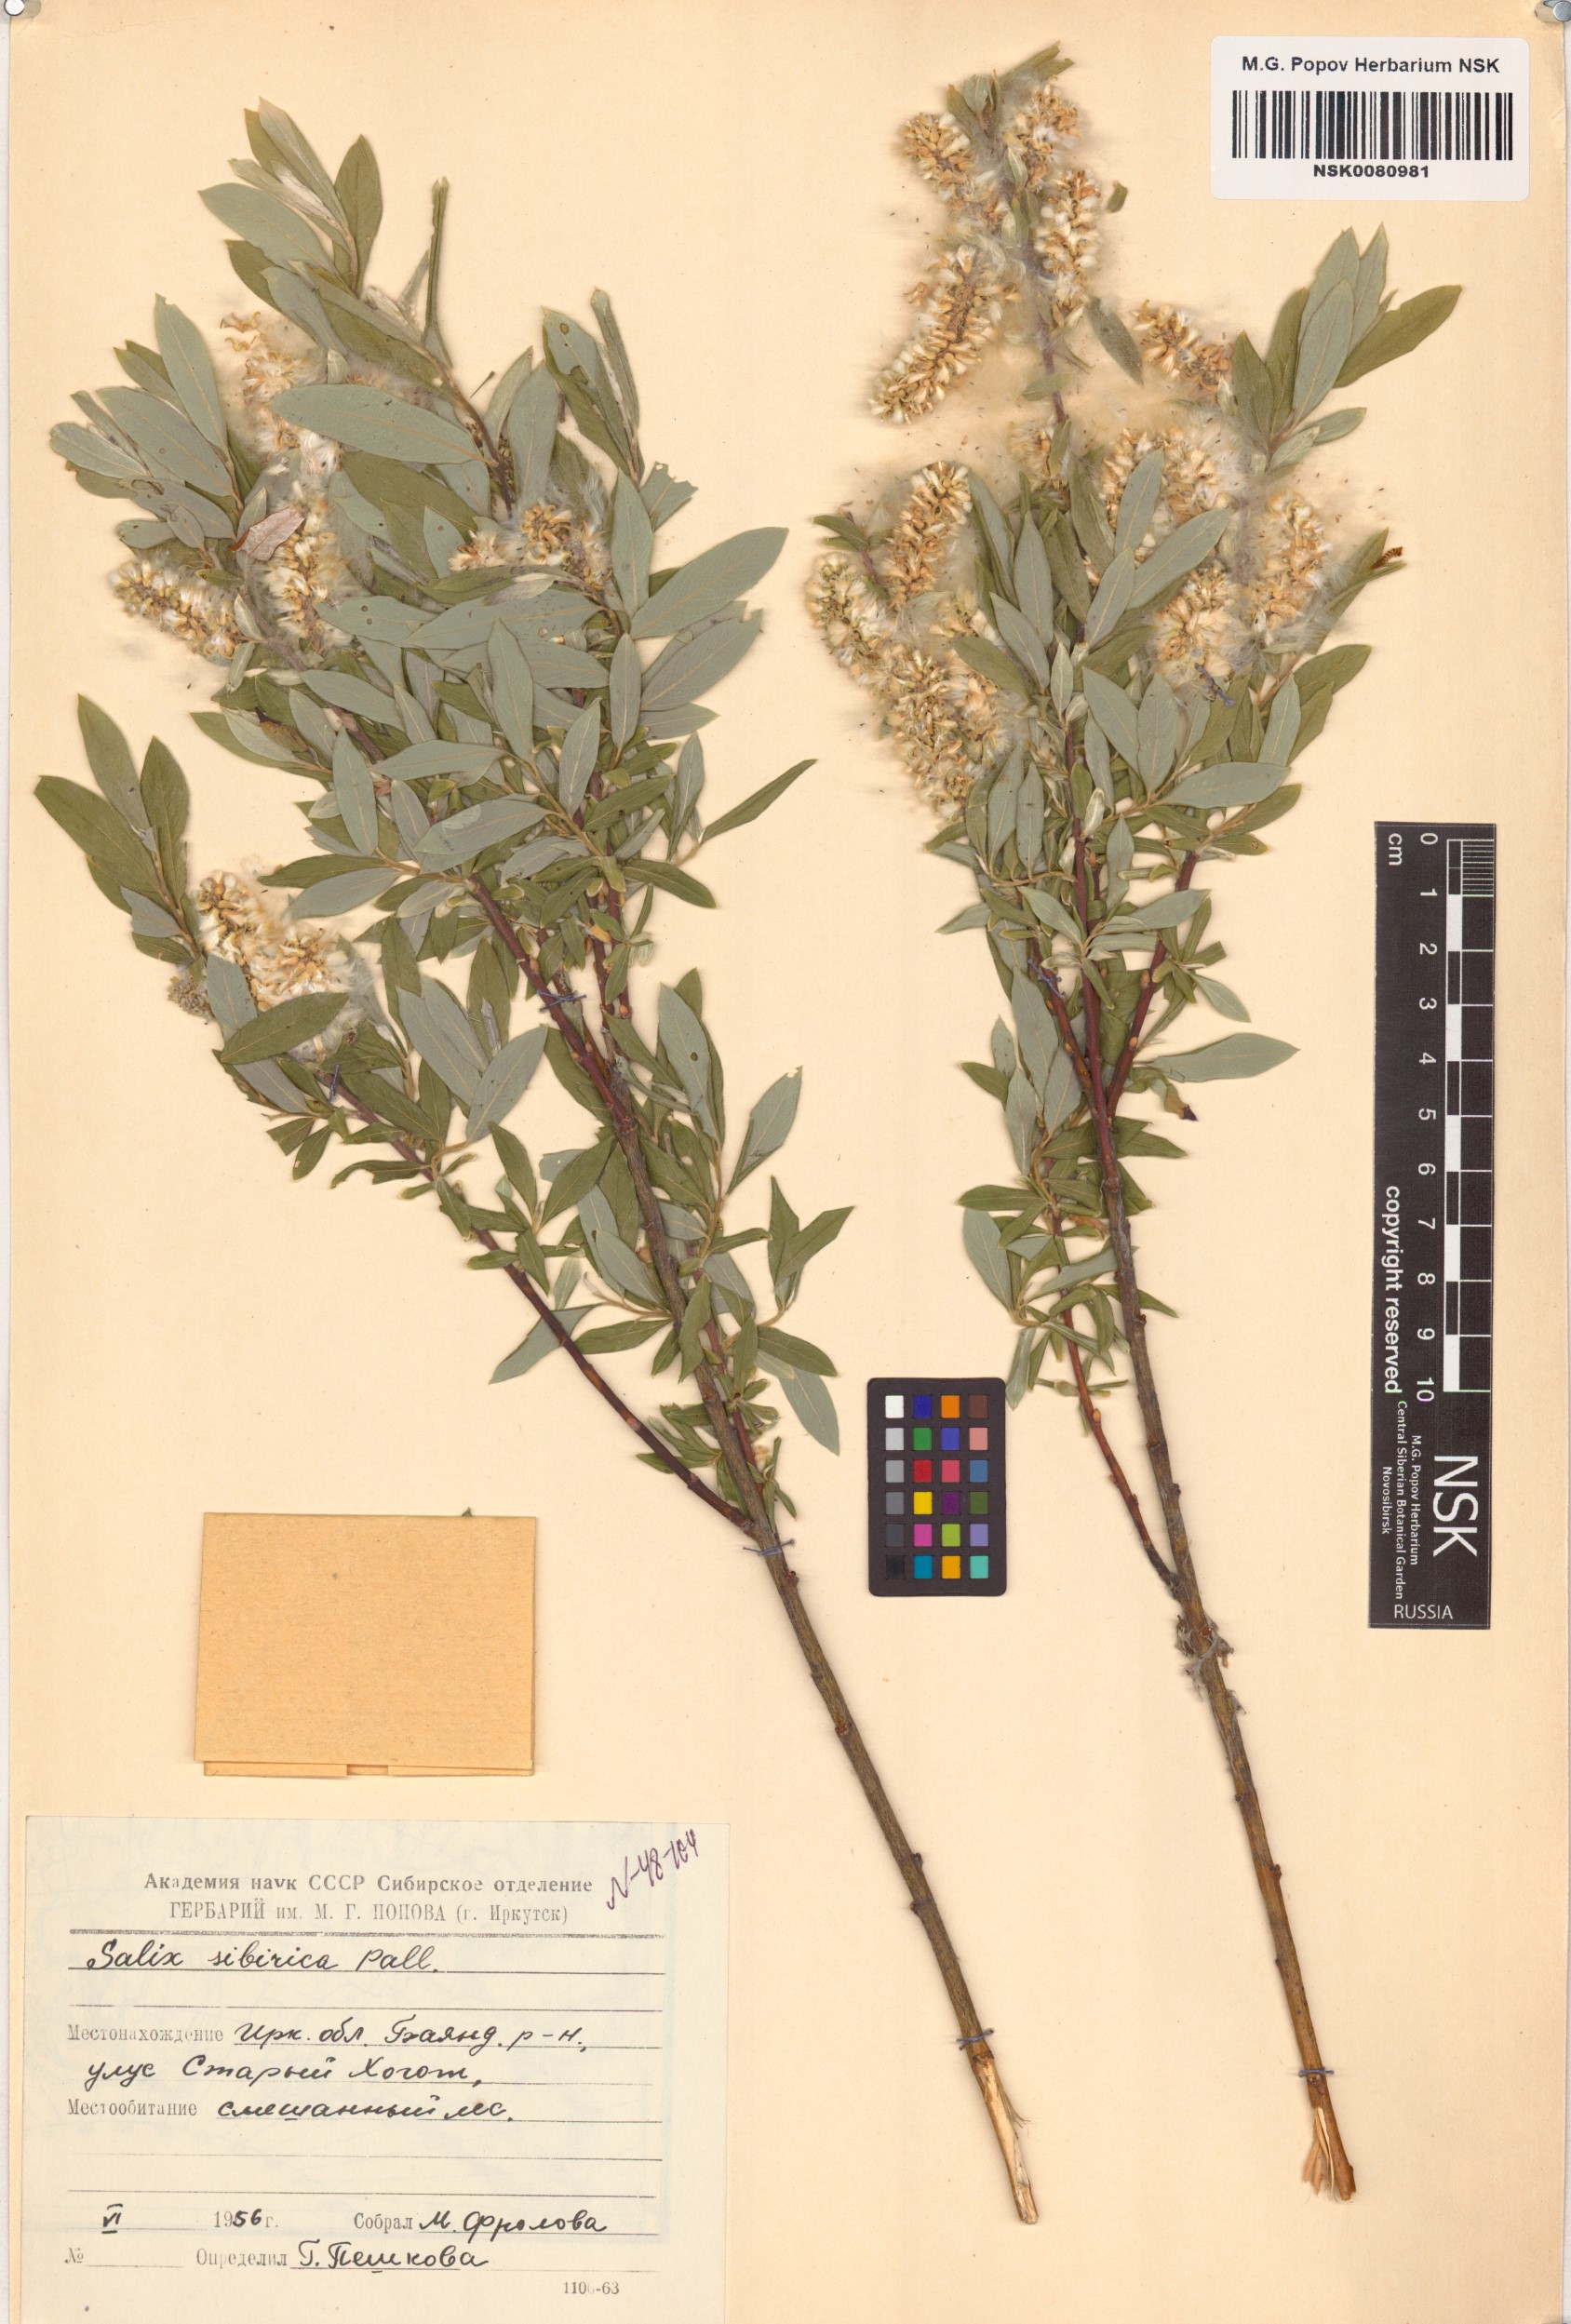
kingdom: Plantae
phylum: Tracheophyta
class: Magnoliopsida
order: Malpighiales
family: Salicaceae
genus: Salix
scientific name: Salix rosmarinifolia
